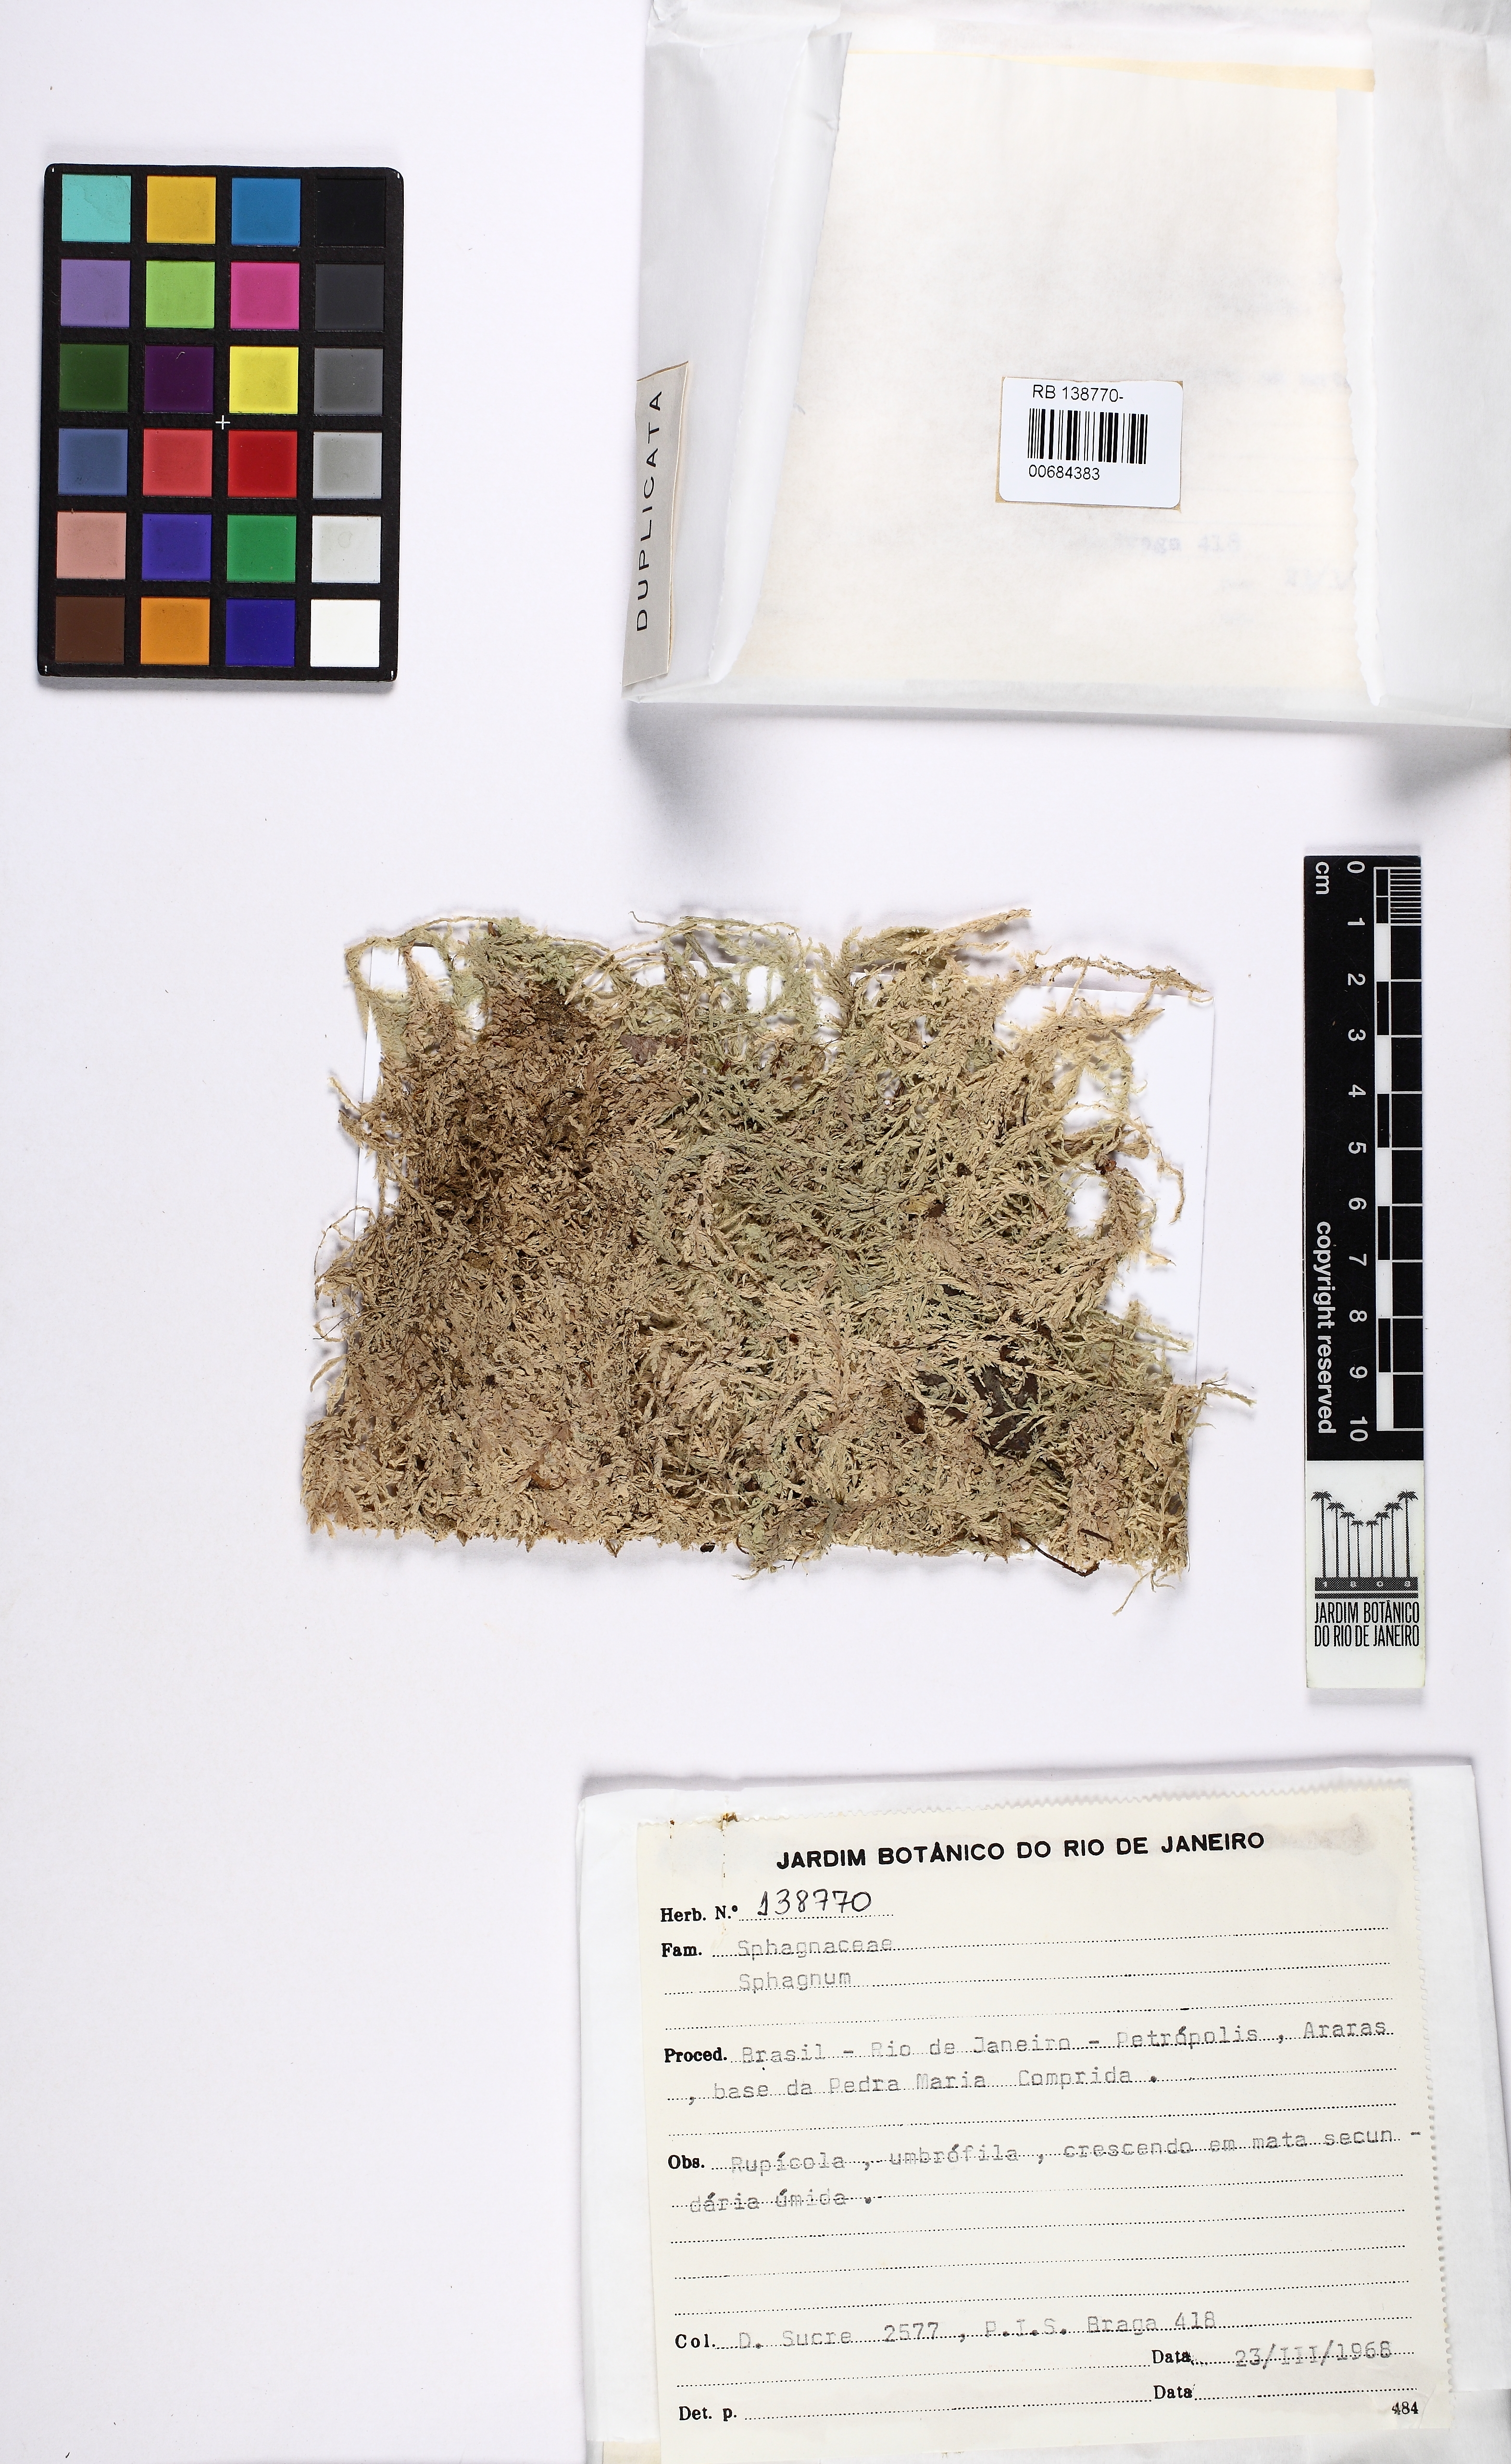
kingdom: Plantae
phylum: Bryophyta
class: Sphagnopsida
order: Sphagnales
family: Sphagnaceae
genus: Sphagnum
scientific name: Sphagnum
